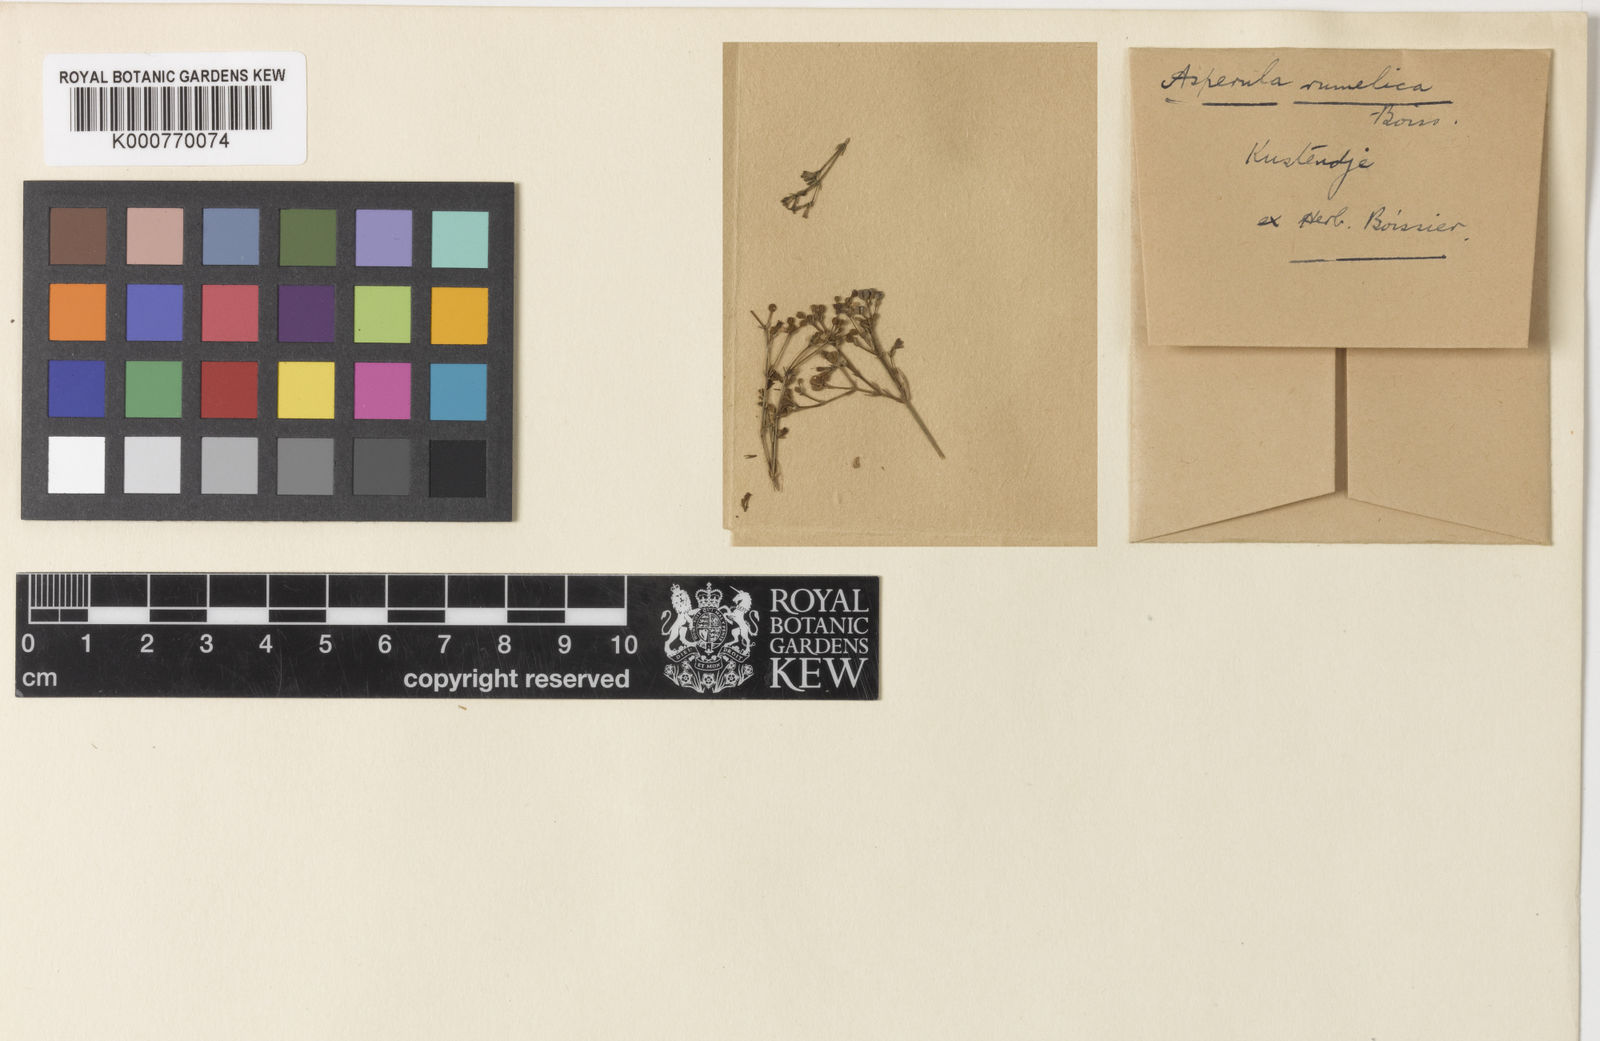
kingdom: Plantae
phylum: Tracheophyta
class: Magnoliopsida
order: Gentianales
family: Rubiaceae
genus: Cynanchica
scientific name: Cynanchica tenella
